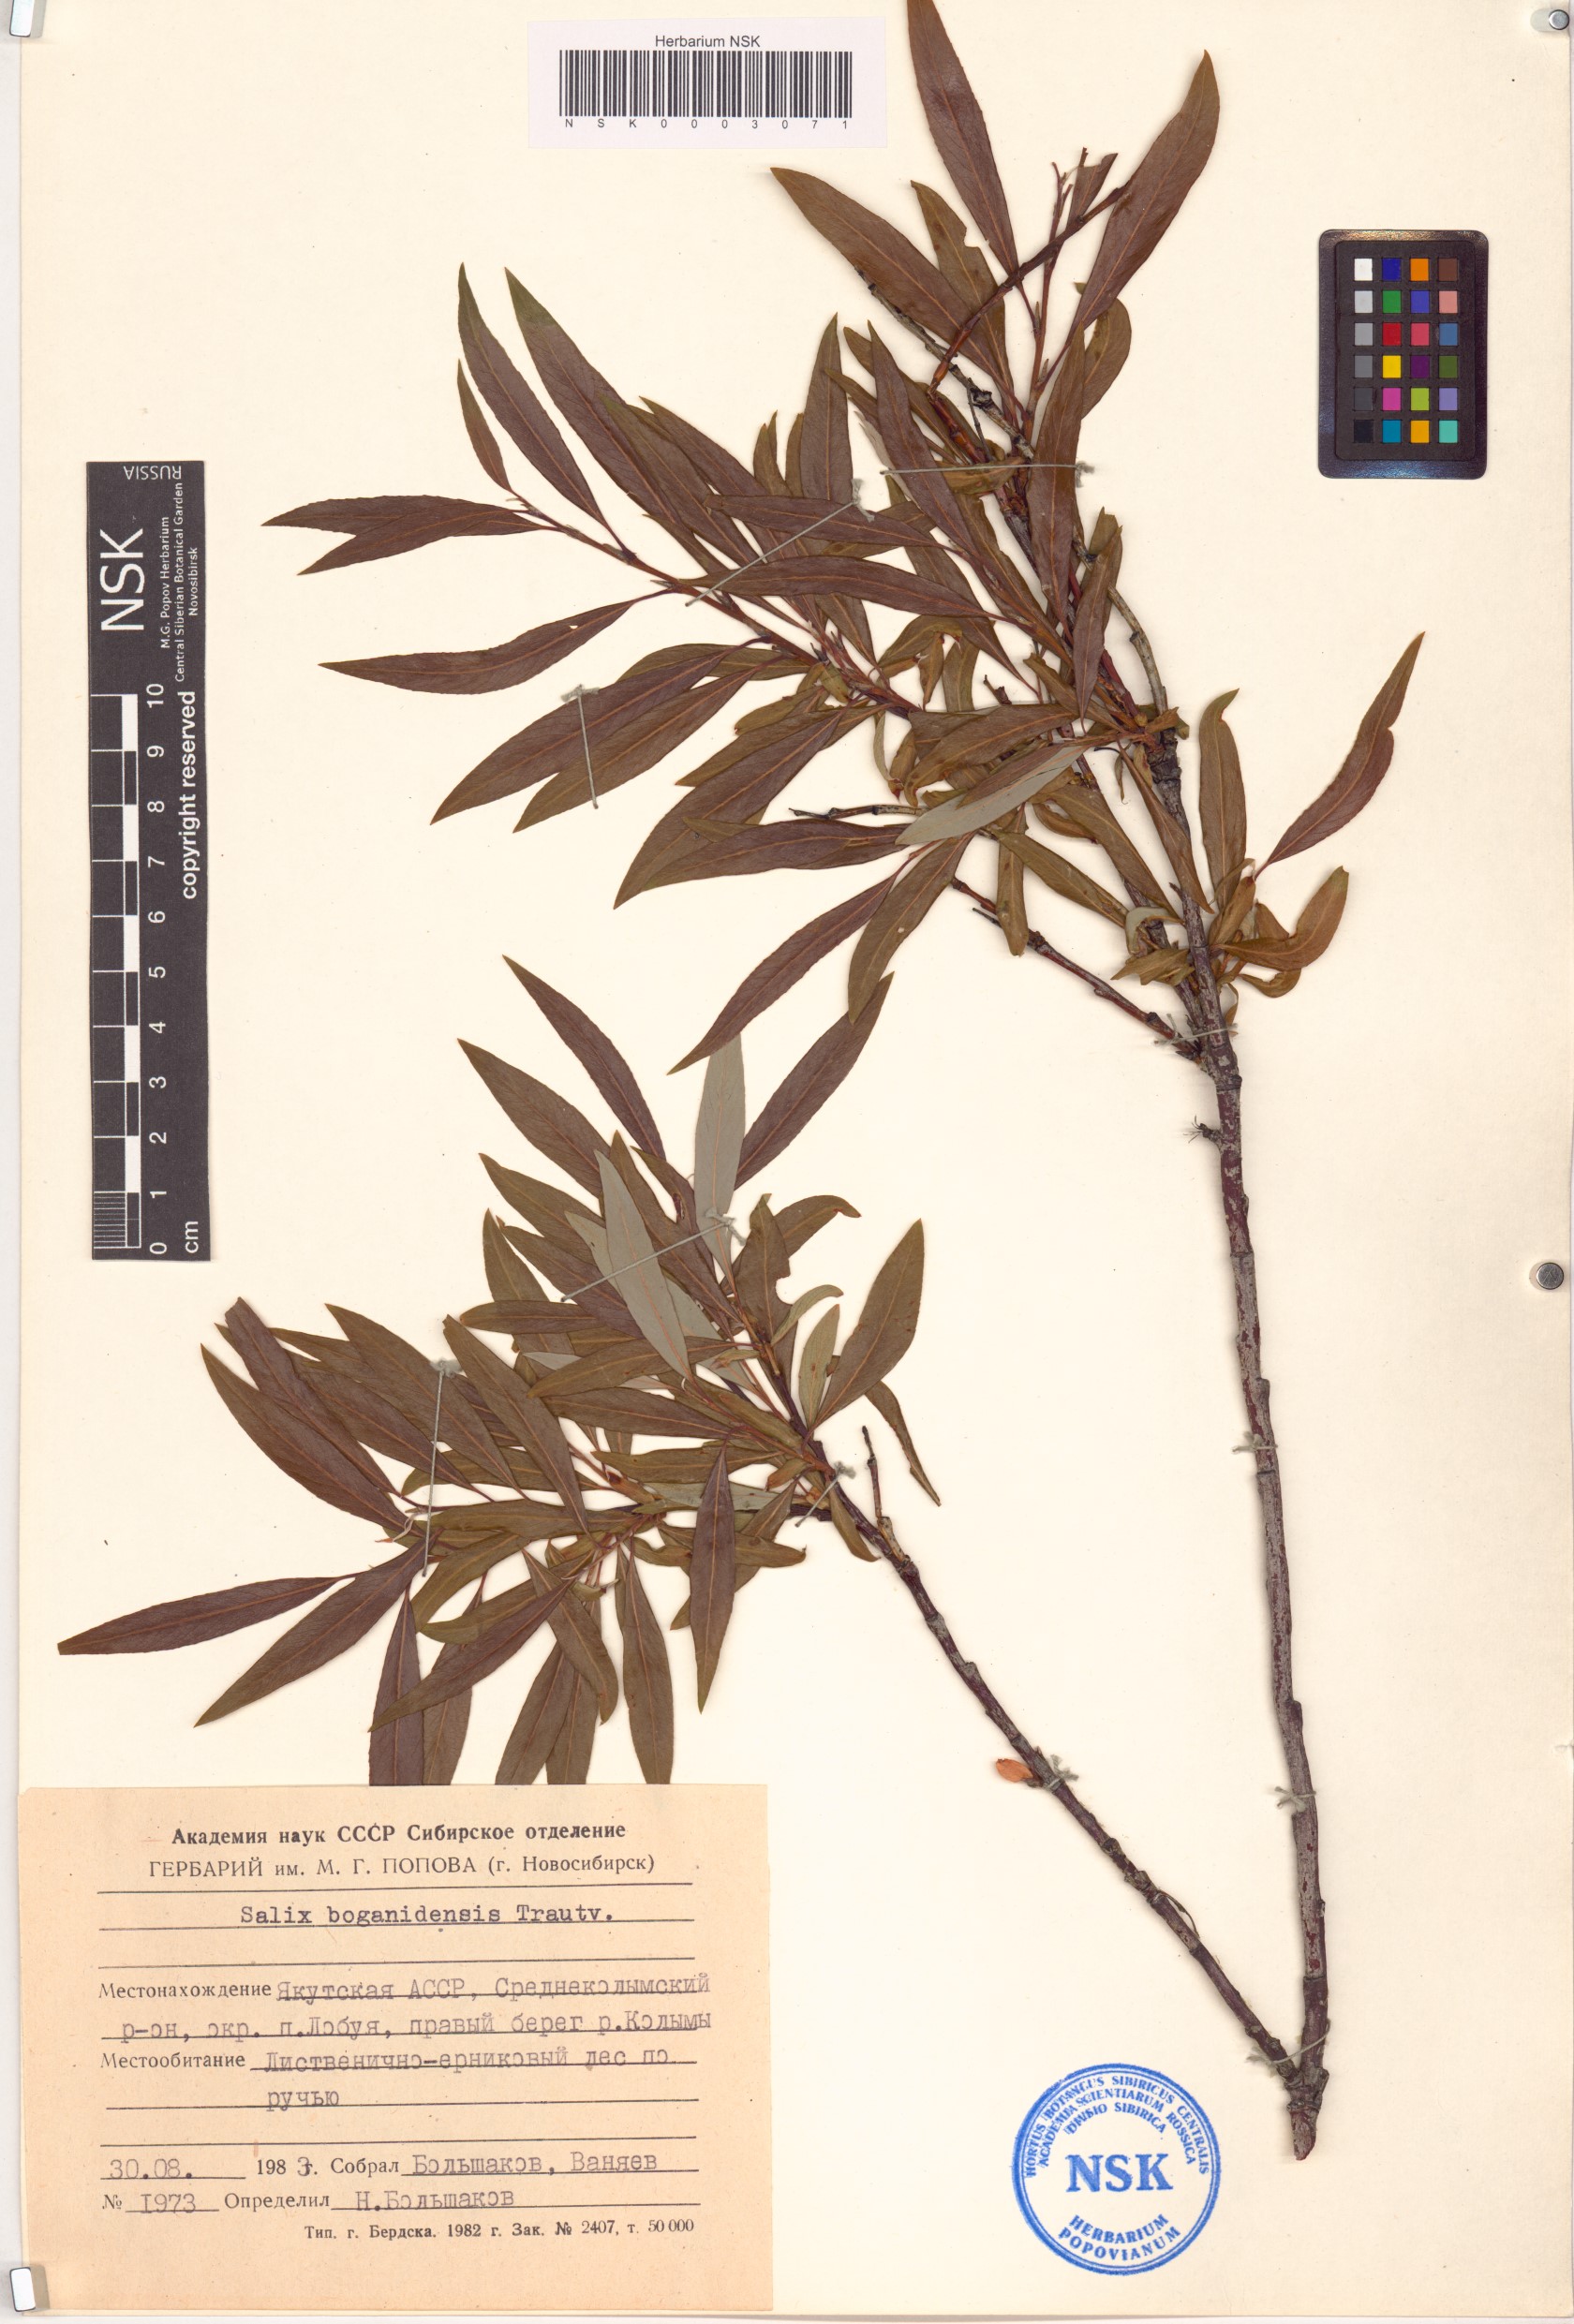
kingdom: Plantae
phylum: Tracheophyta
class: Magnoliopsida
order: Malpighiales
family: Salicaceae
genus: Salix
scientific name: Salix boganidensis
